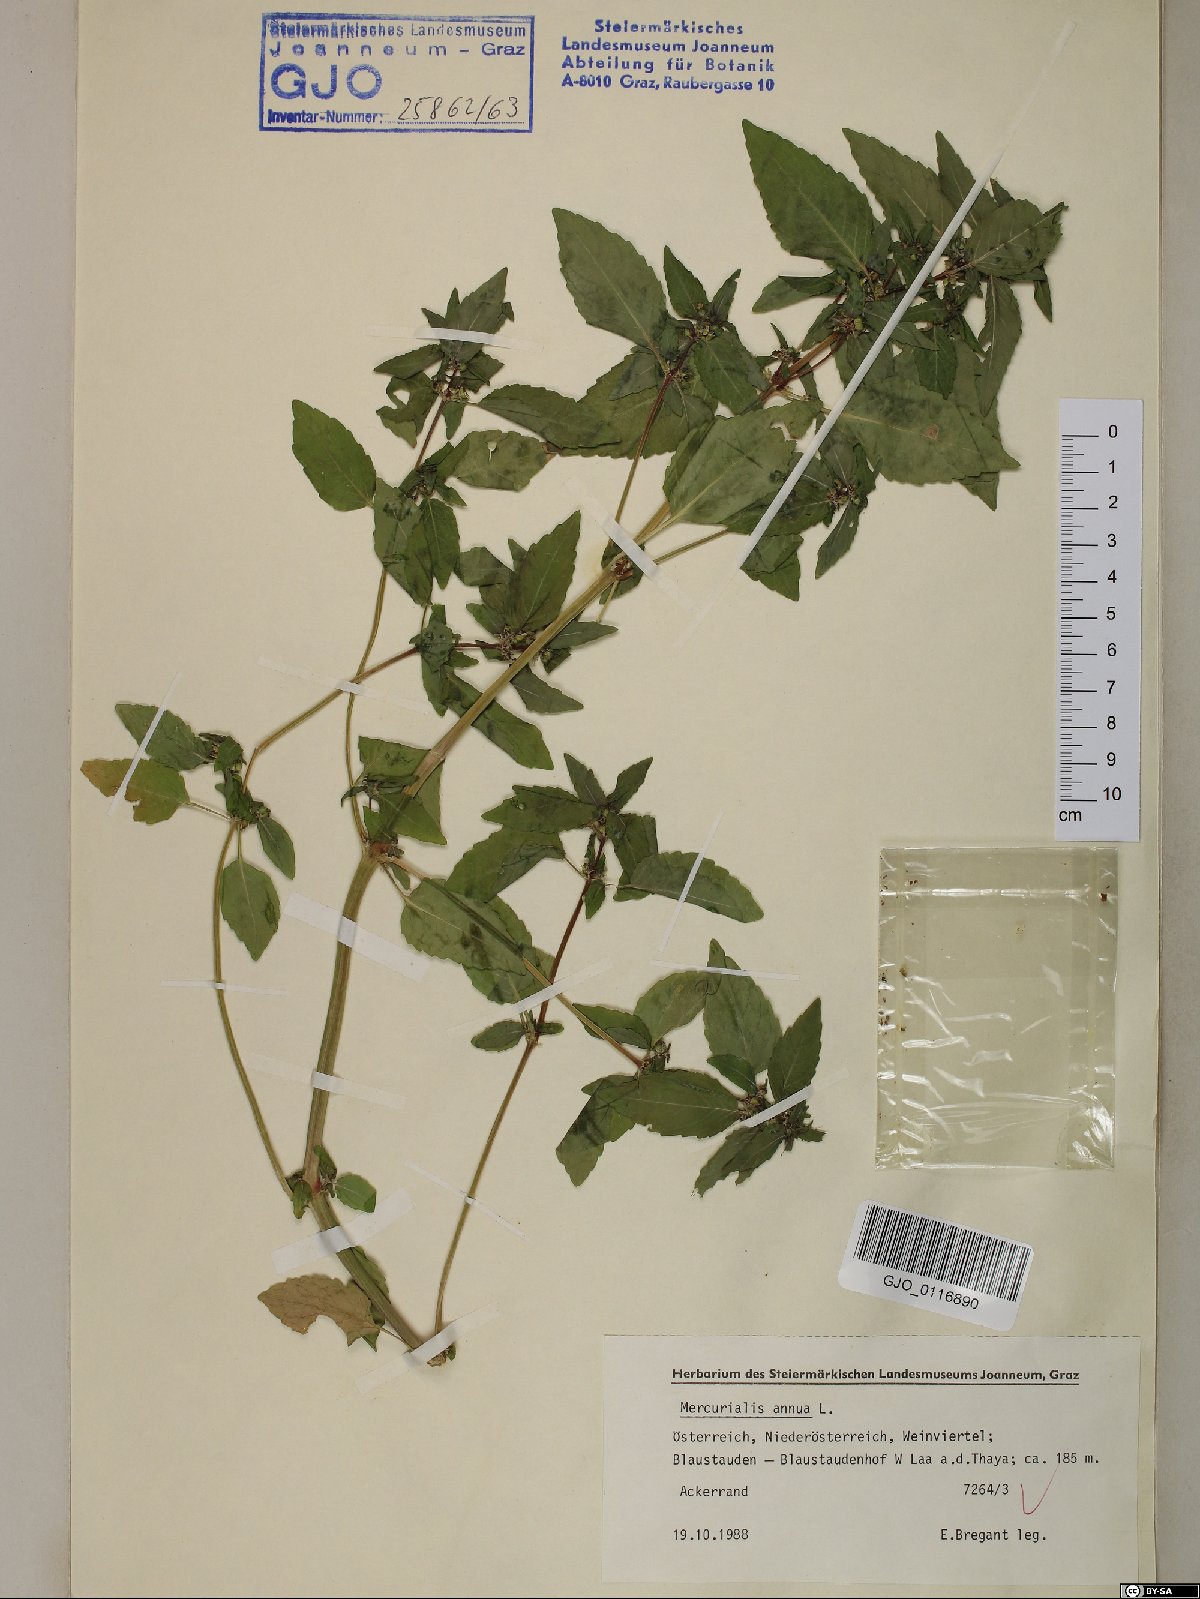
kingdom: Plantae
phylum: Tracheophyta
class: Magnoliopsida
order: Malpighiales
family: Euphorbiaceae
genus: Mercurialis
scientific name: Mercurialis annua
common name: Annual mercury
